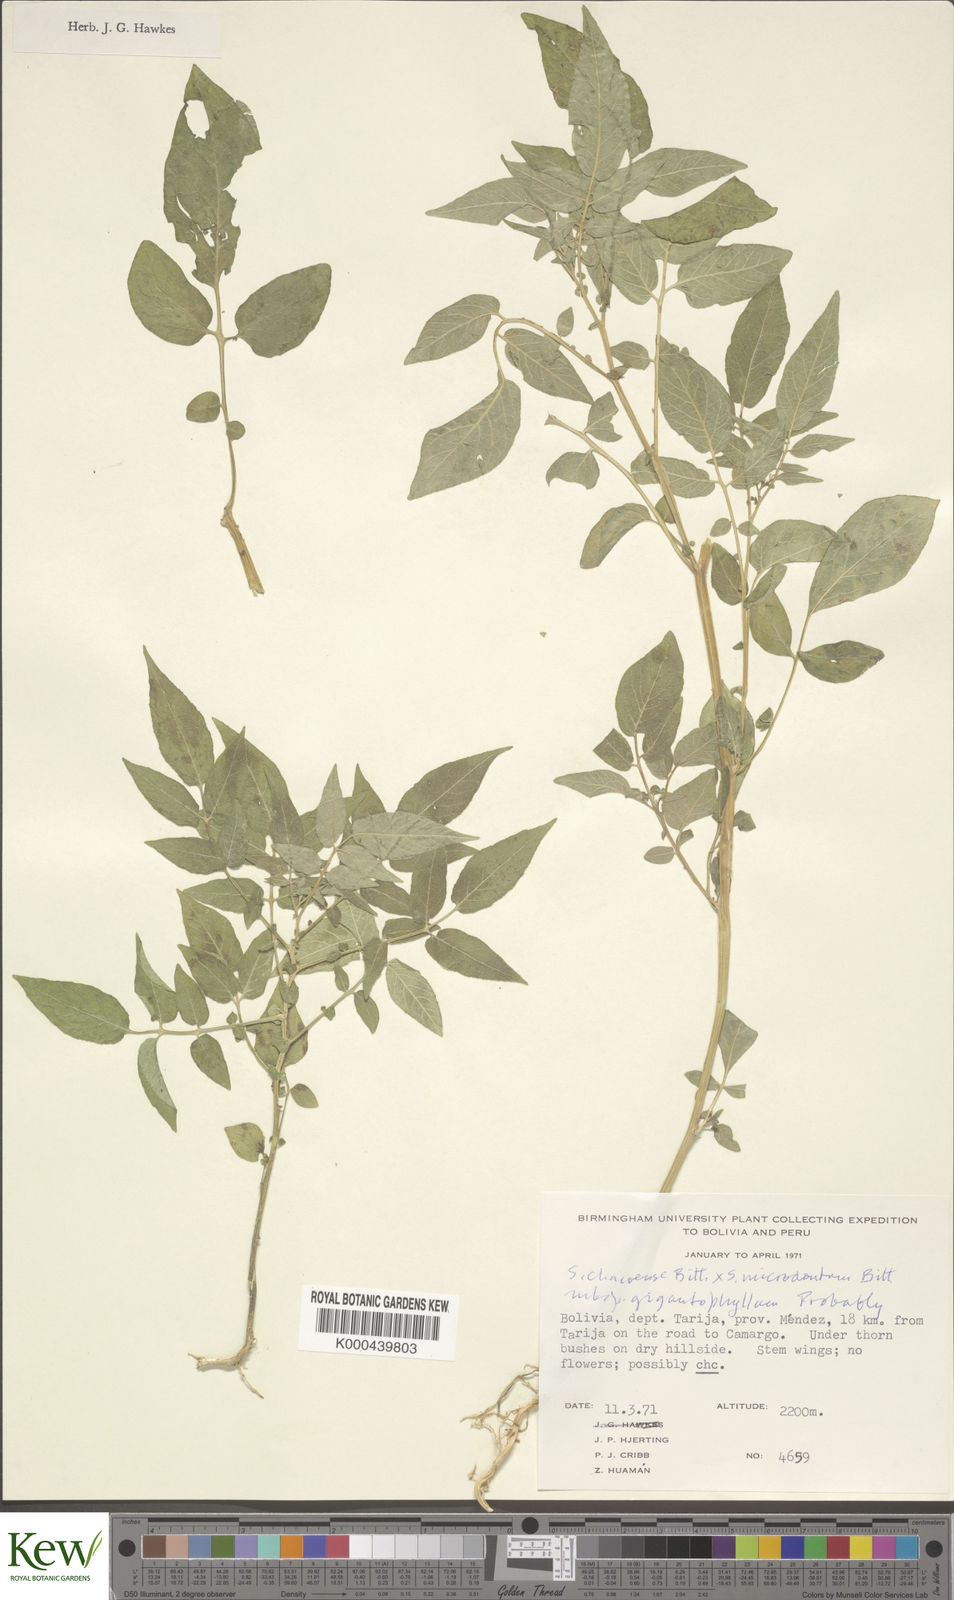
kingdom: Plantae
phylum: Tracheophyta
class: Magnoliopsida
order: Solanales
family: Solanaceae
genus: Solanum
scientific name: Solanum chacoense
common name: Chaco potato
